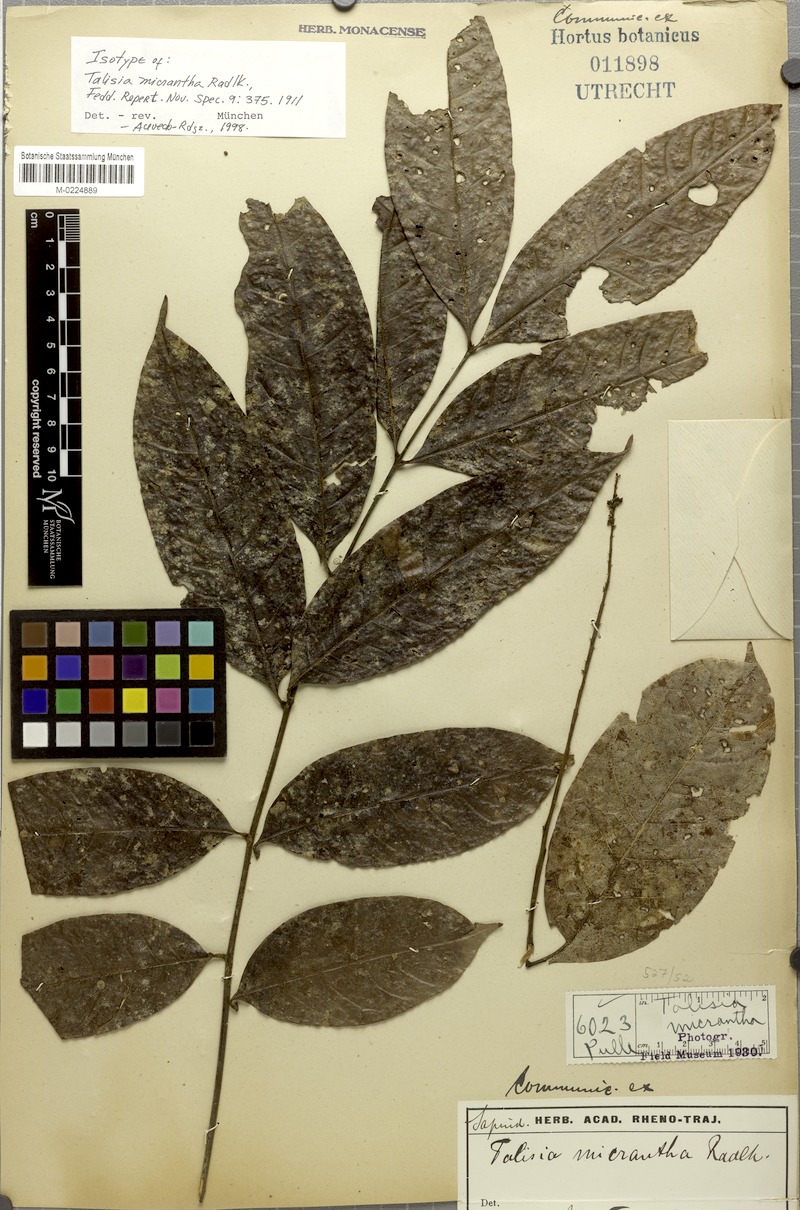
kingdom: Plantae
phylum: Tracheophyta
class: Magnoliopsida
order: Sapindales
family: Sapindaceae
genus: Talisia
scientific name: Talisia sylvatica
